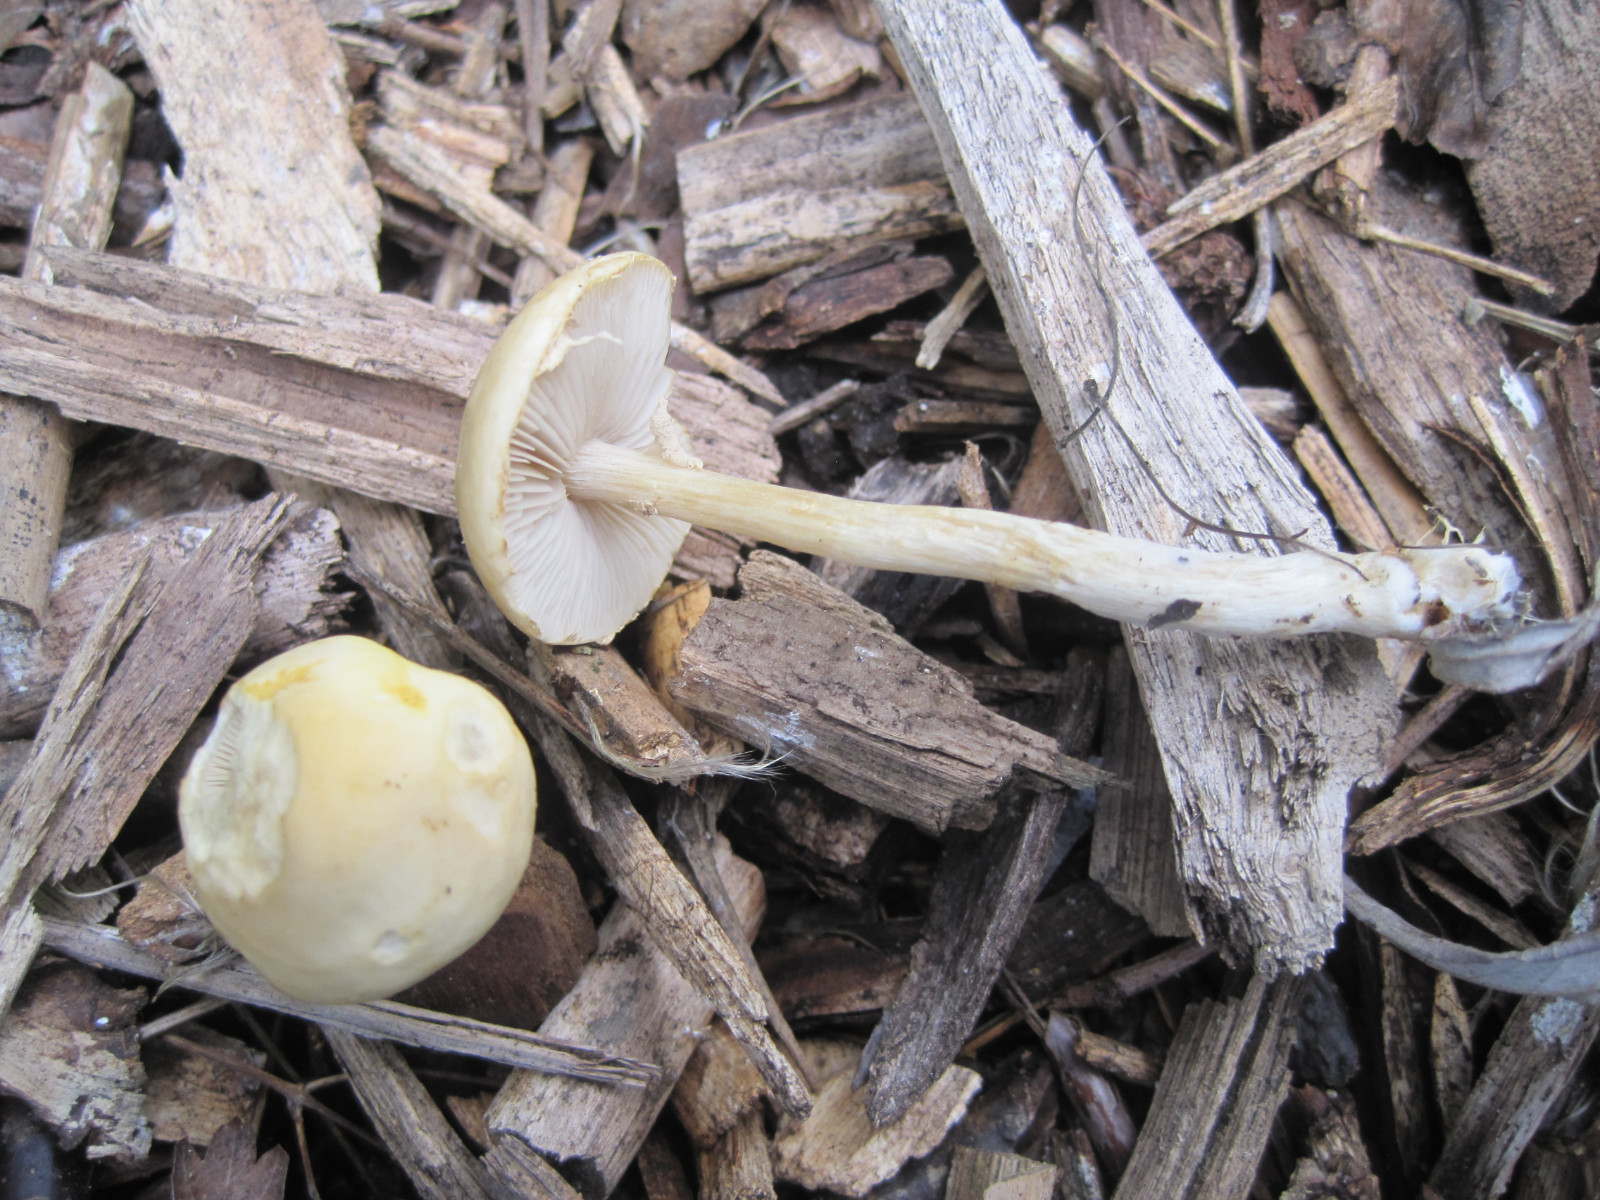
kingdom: Fungi
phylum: Basidiomycota
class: Agaricomycetes
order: Agaricales
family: Strophariaceae
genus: Agrocybe
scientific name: Agrocybe praecox
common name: tidlig agerhat
